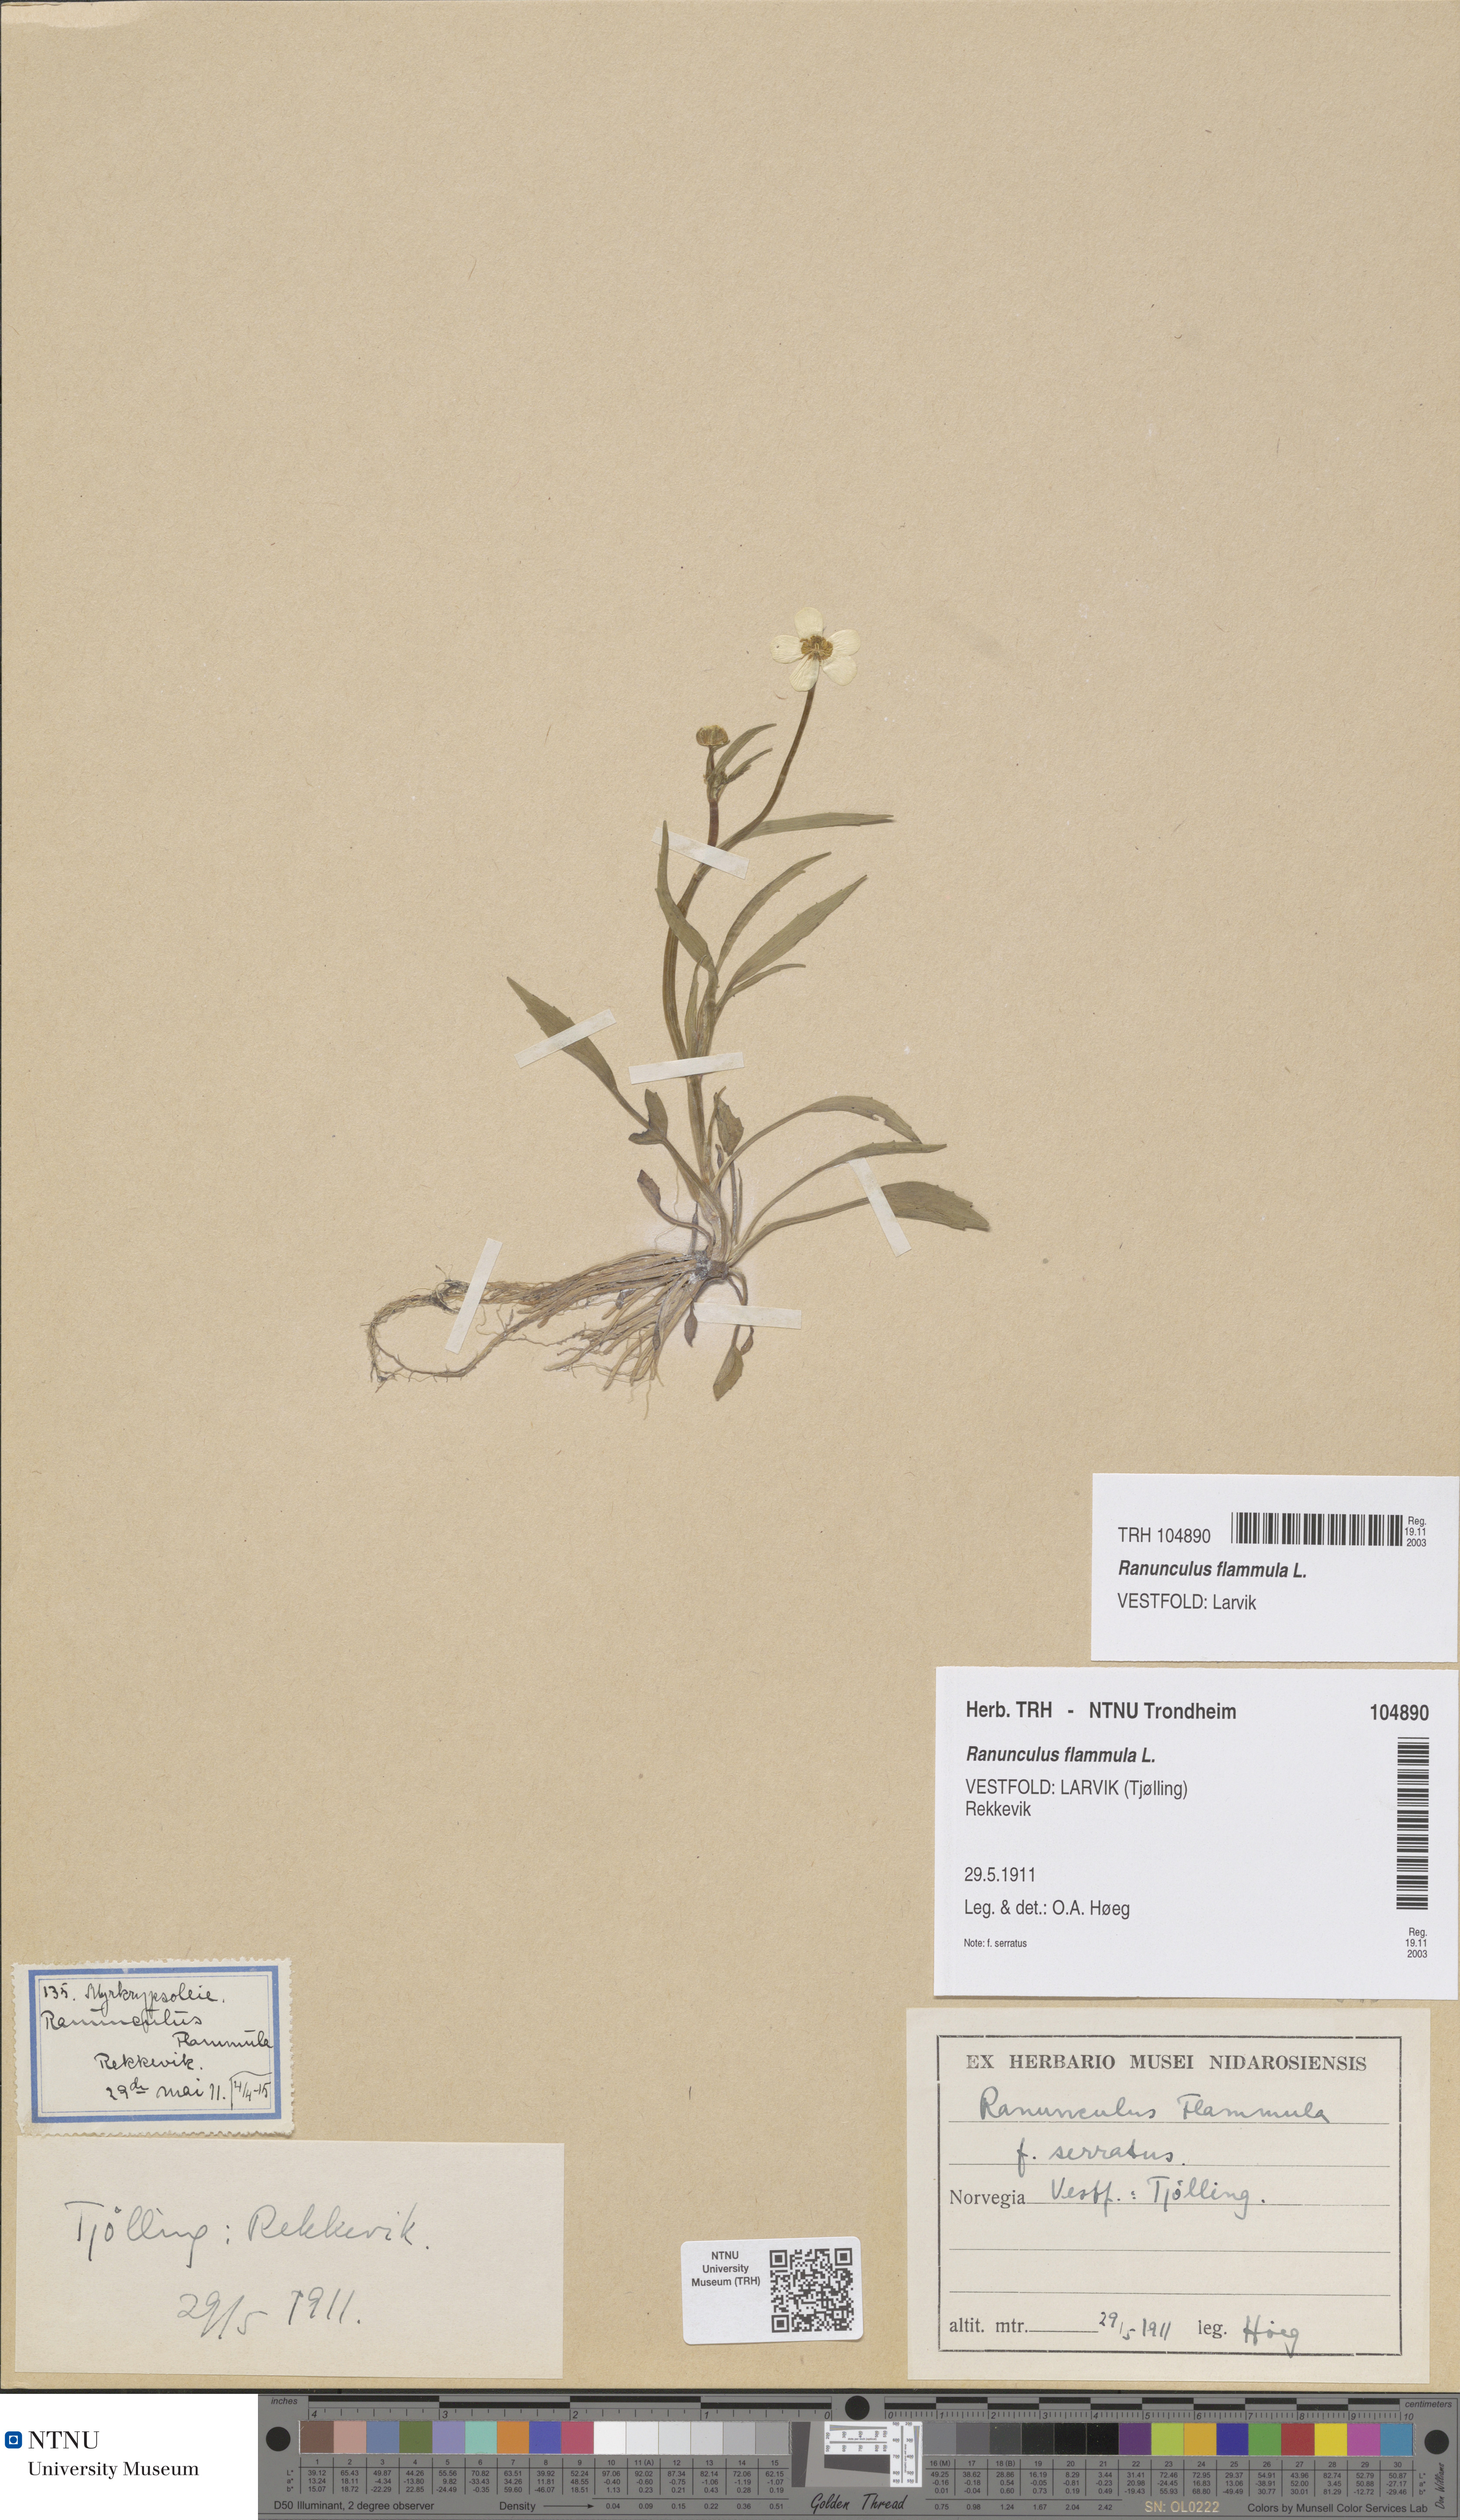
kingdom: Plantae
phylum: Tracheophyta
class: Magnoliopsida
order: Ranunculales
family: Ranunculaceae
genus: Ranunculus
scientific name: Ranunculus flammula
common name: Lesser spearwort
